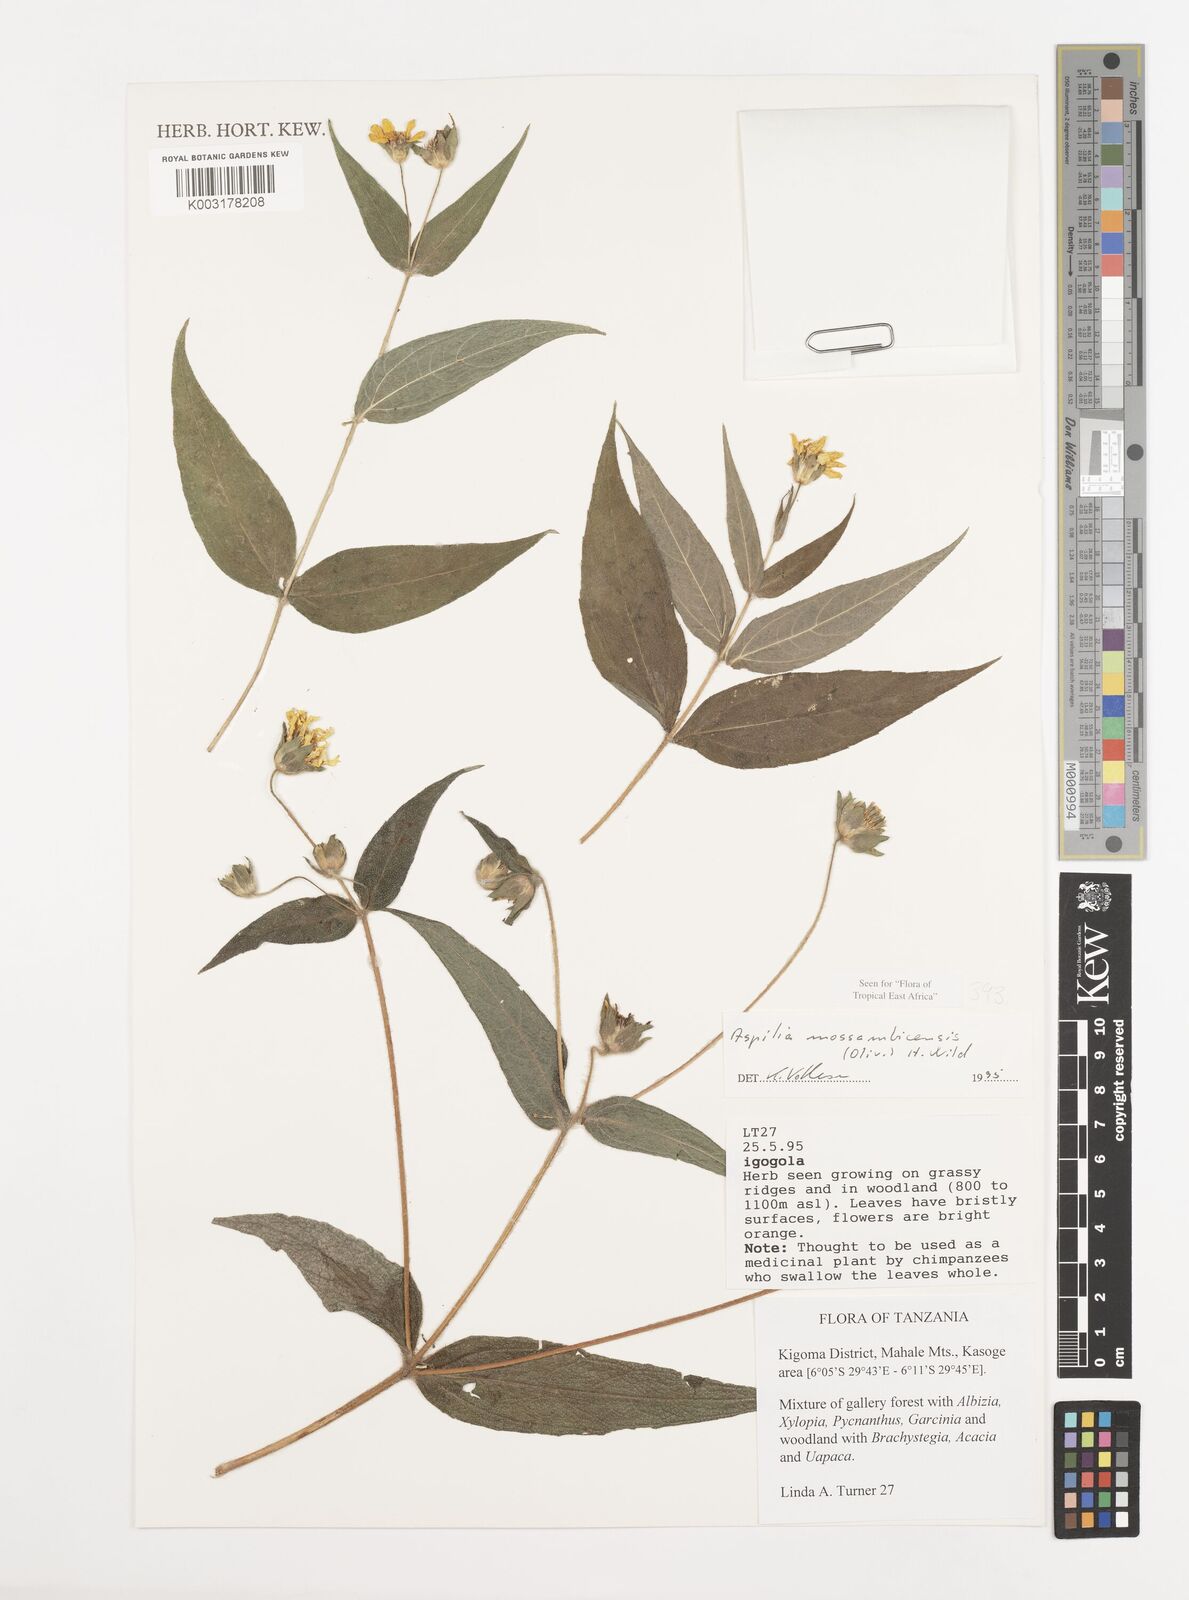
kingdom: Plantae
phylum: Tracheophyta
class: Magnoliopsida
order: Asterales
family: Asteraceae
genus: Aspilia
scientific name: Aspilia mossambicensis
